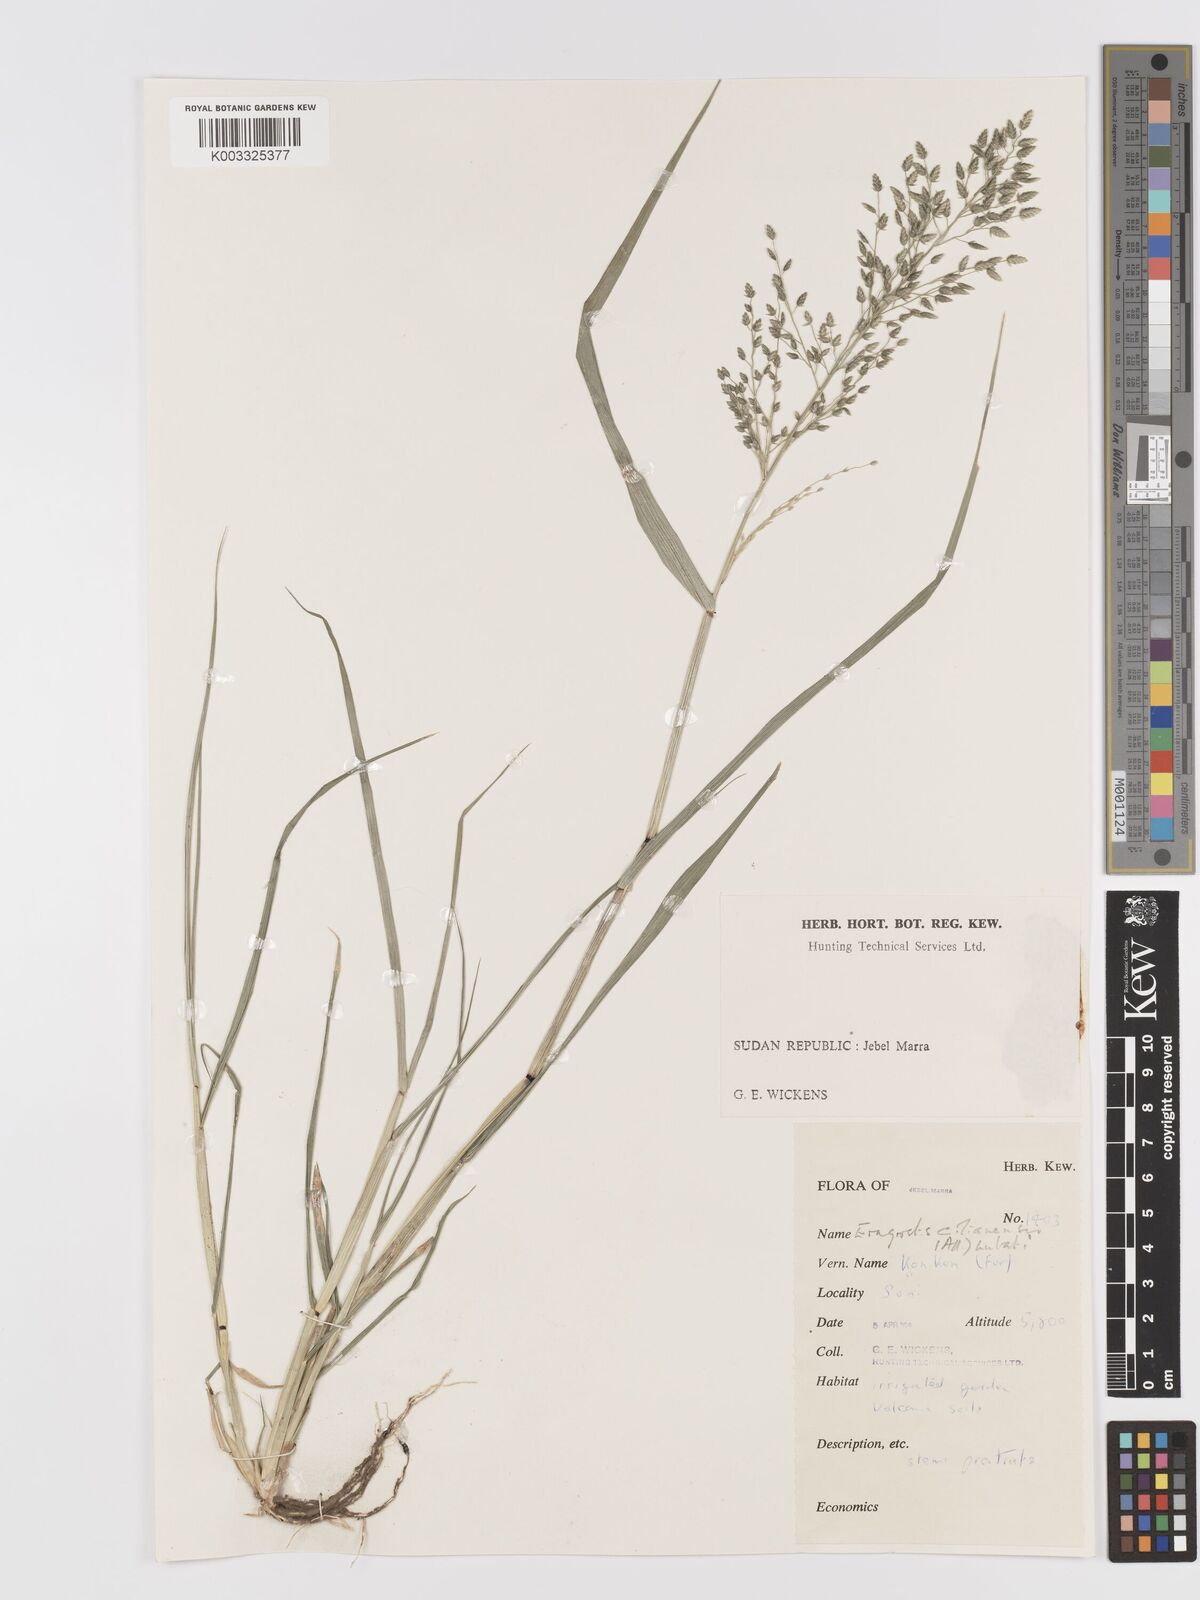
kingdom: Plantae
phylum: Tracheophyta
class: Liliopsida
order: Poales
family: Poaceae
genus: Eragrostis
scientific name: Eragrostis cilianensis
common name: Stinkgrass
